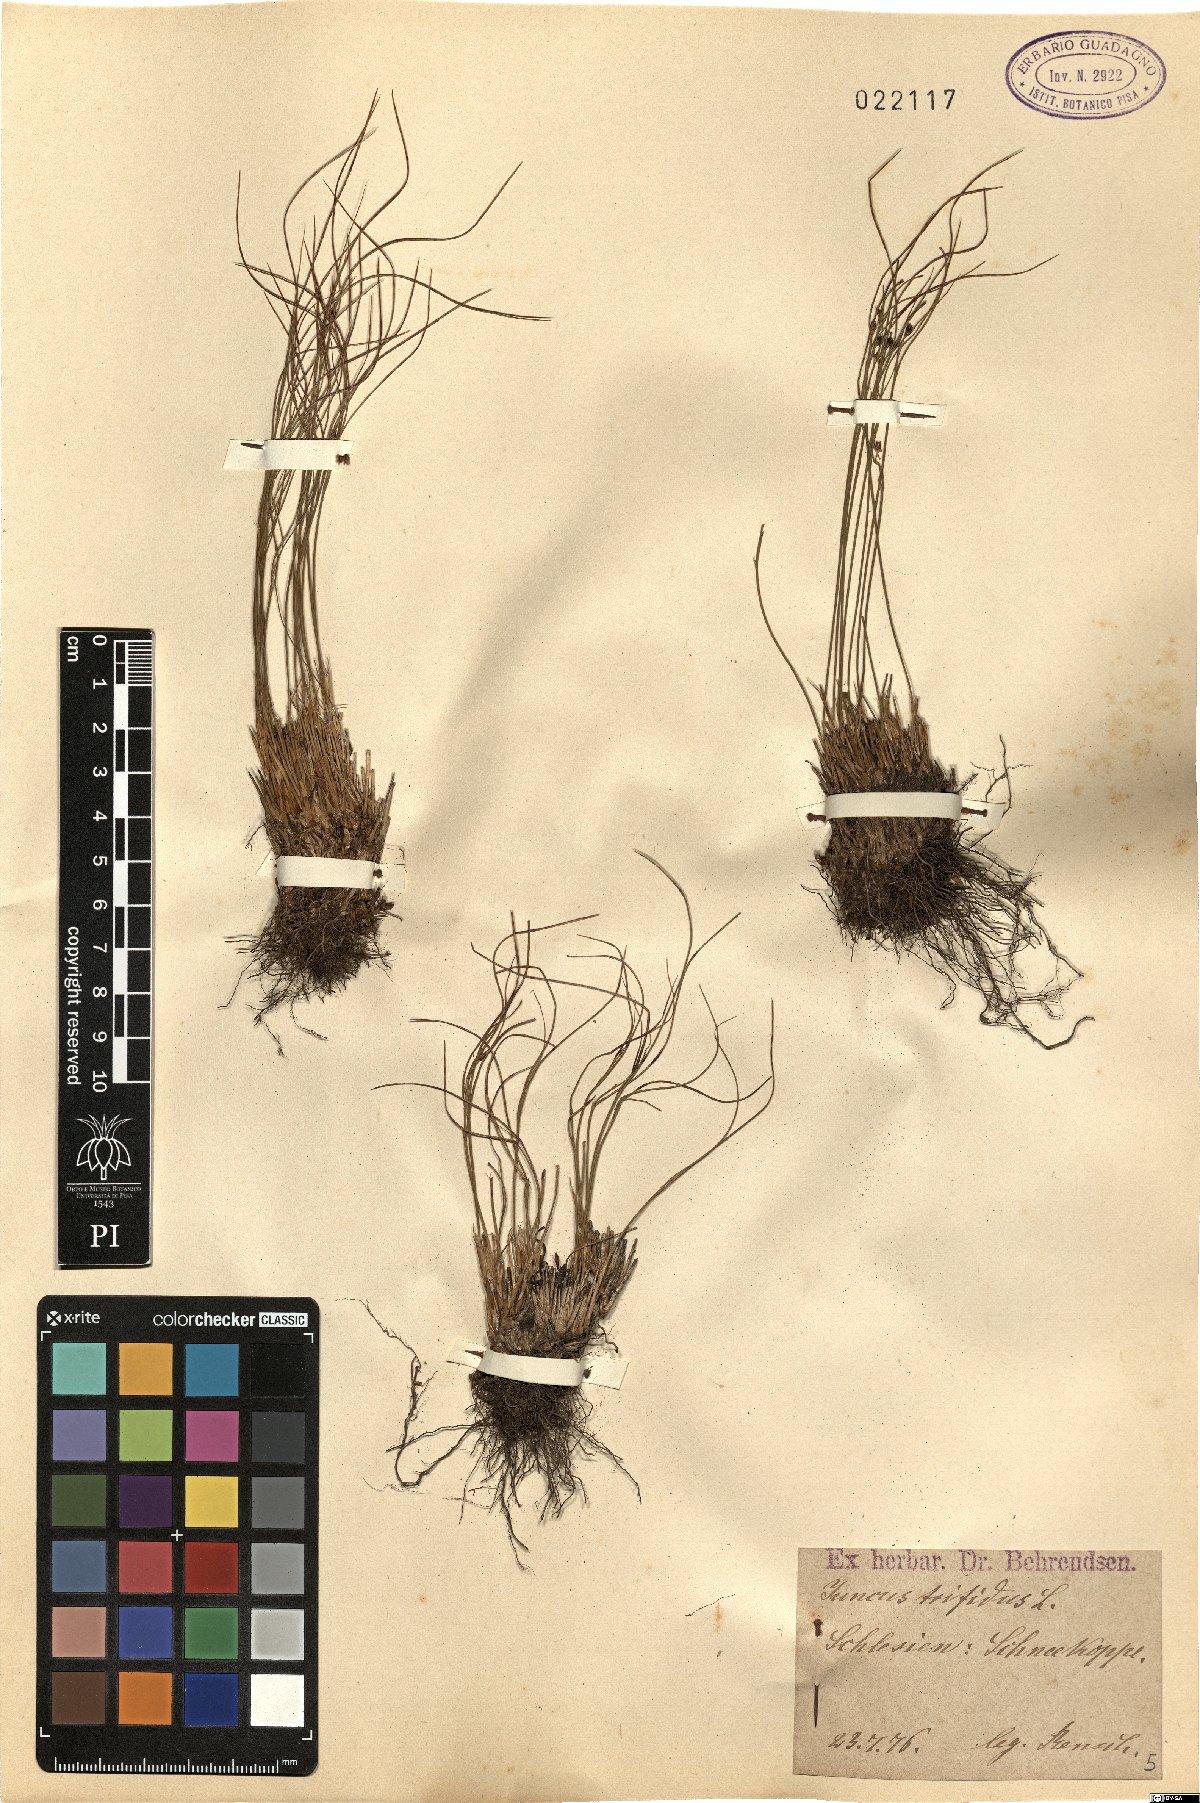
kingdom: Plantae
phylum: Tracheophyta
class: Liliopsida
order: Poales
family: Juncaceae
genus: Oreojuncus
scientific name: Oreojuncus trifidus
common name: Highland rush
